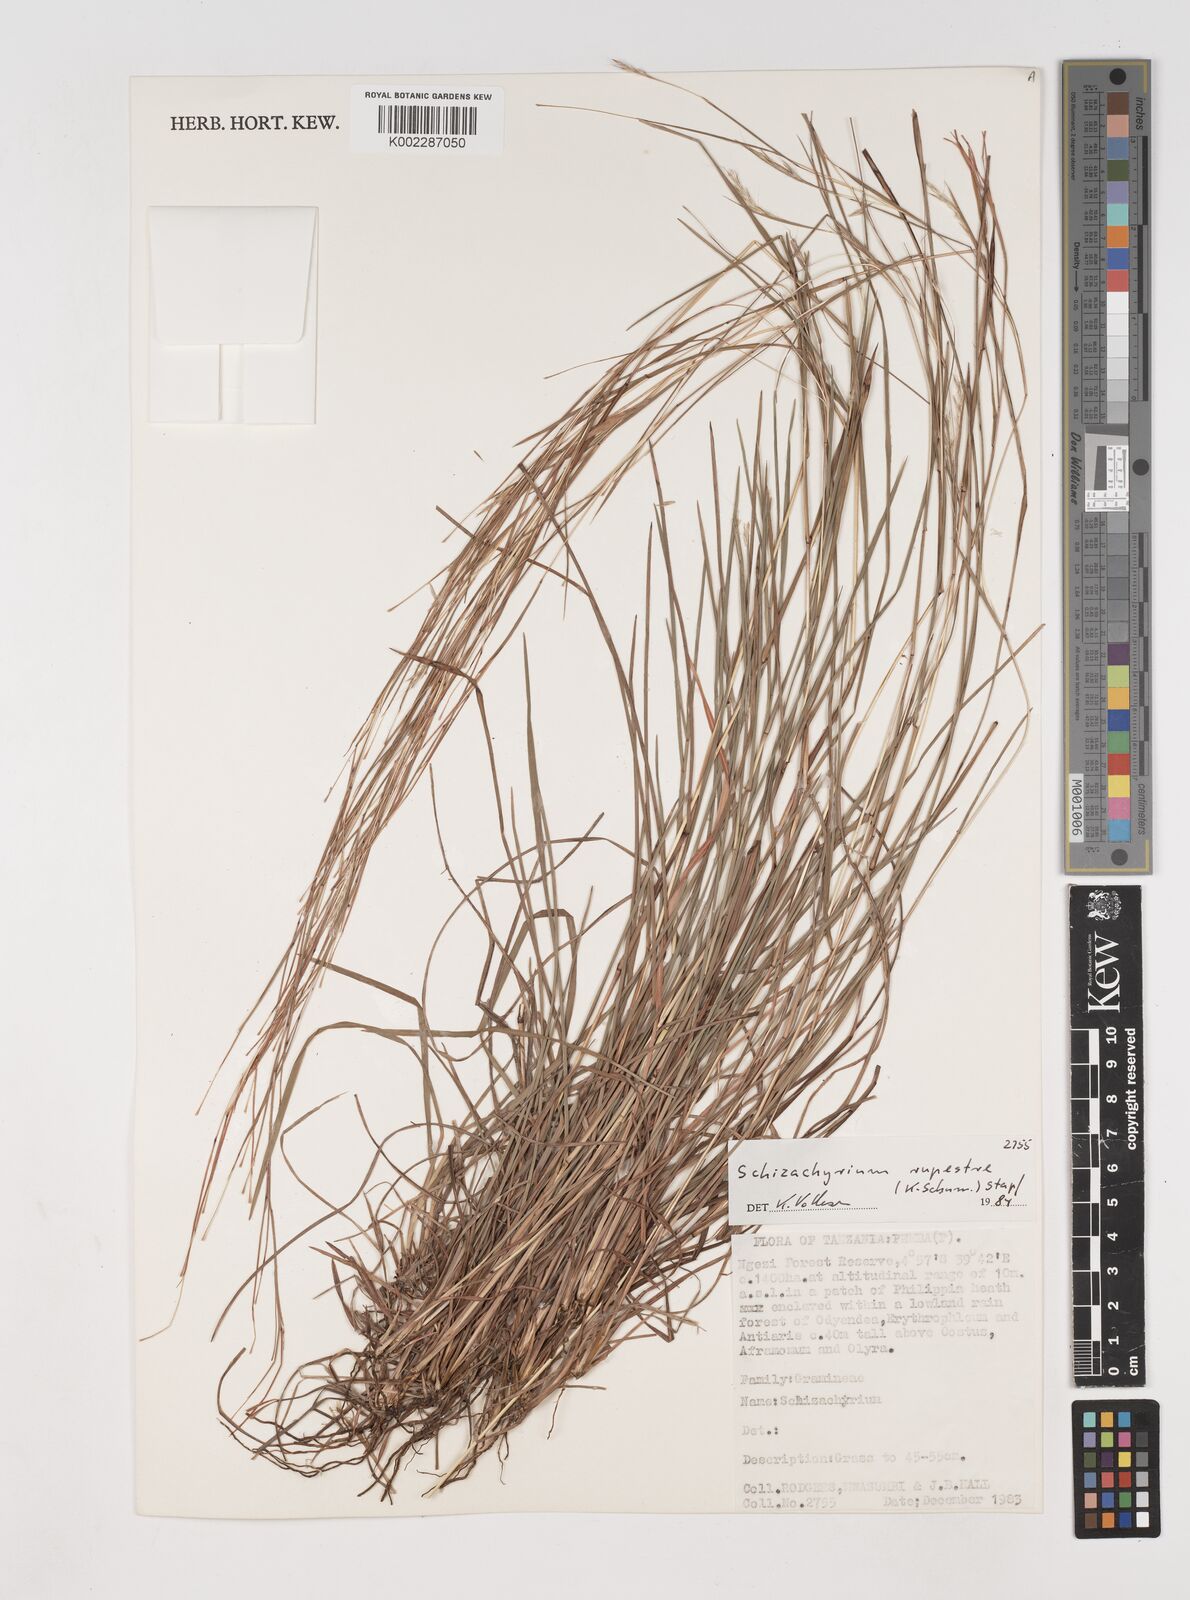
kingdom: Plantae
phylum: Tracheophyta
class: Liliopsida
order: Poales
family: Poaceae
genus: Andropogon
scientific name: Andropogon rupestris
